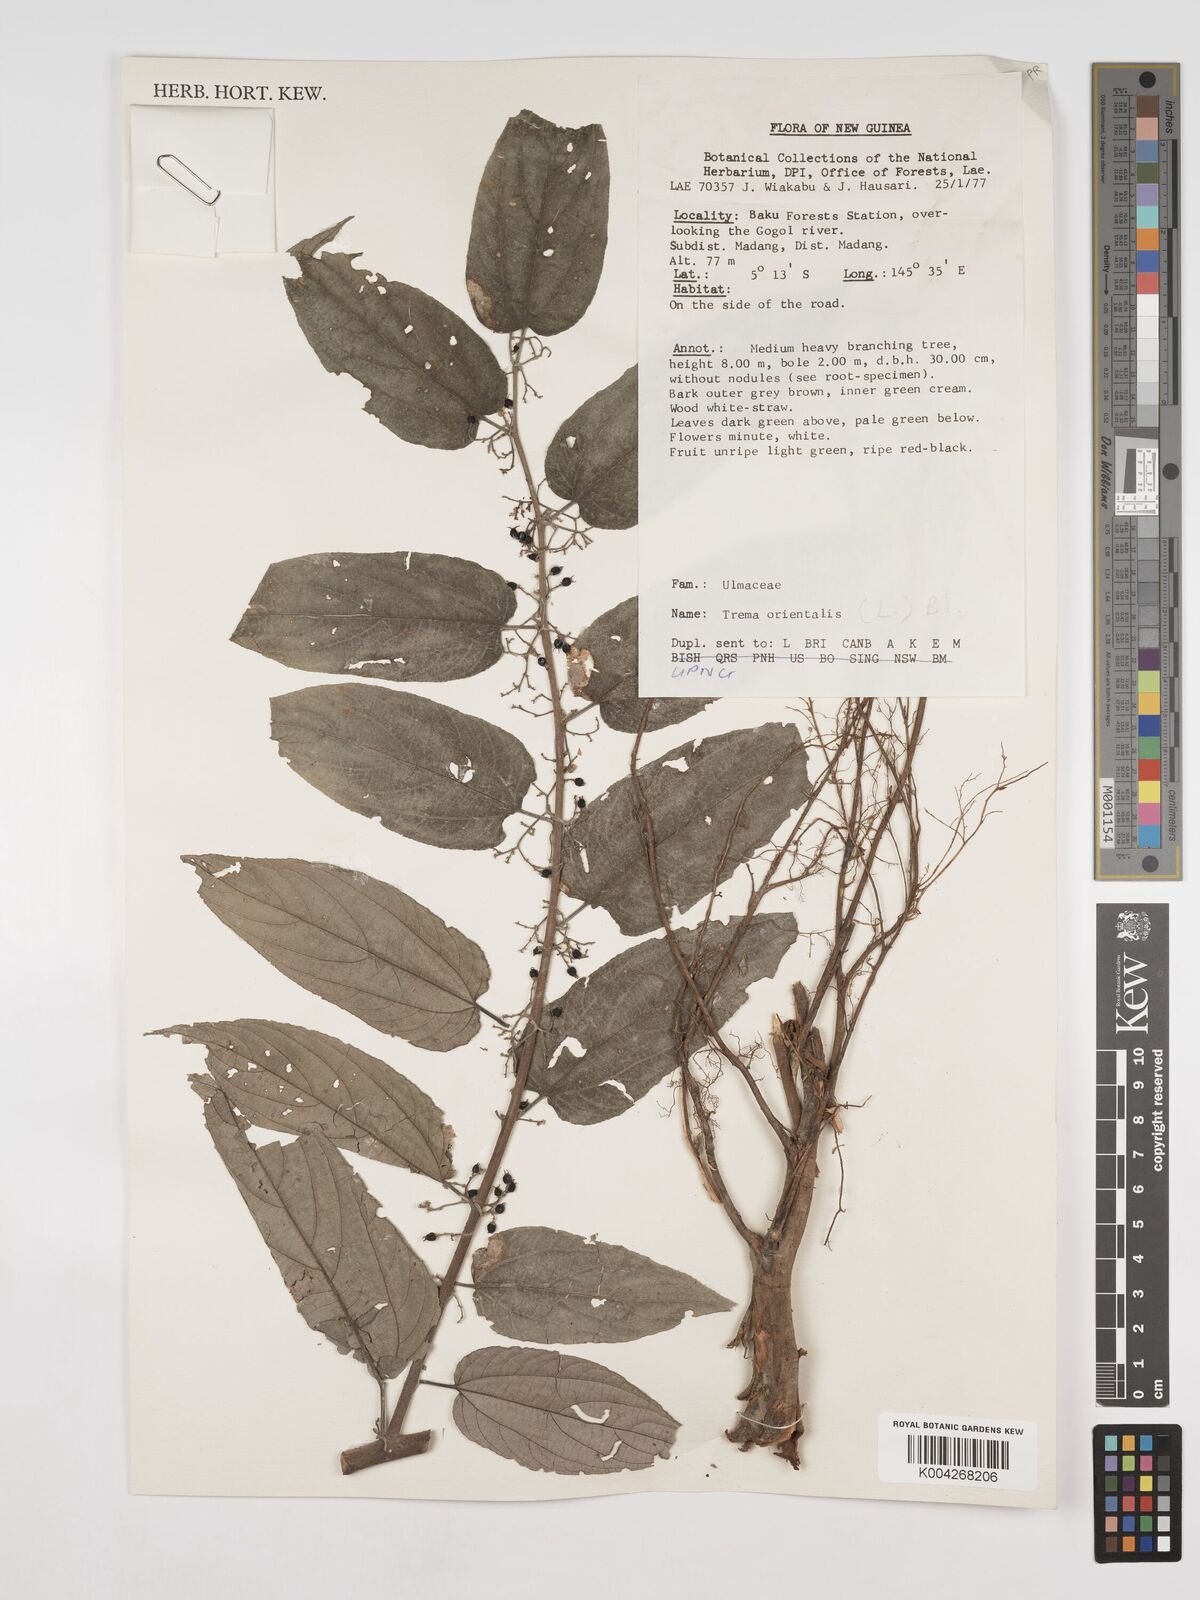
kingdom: Plantae
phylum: Tracheophyta
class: Magnoliopsida
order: Rosales
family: Cannabaceae
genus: Trema
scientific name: Trema orientale
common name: Indian charcoal tree
